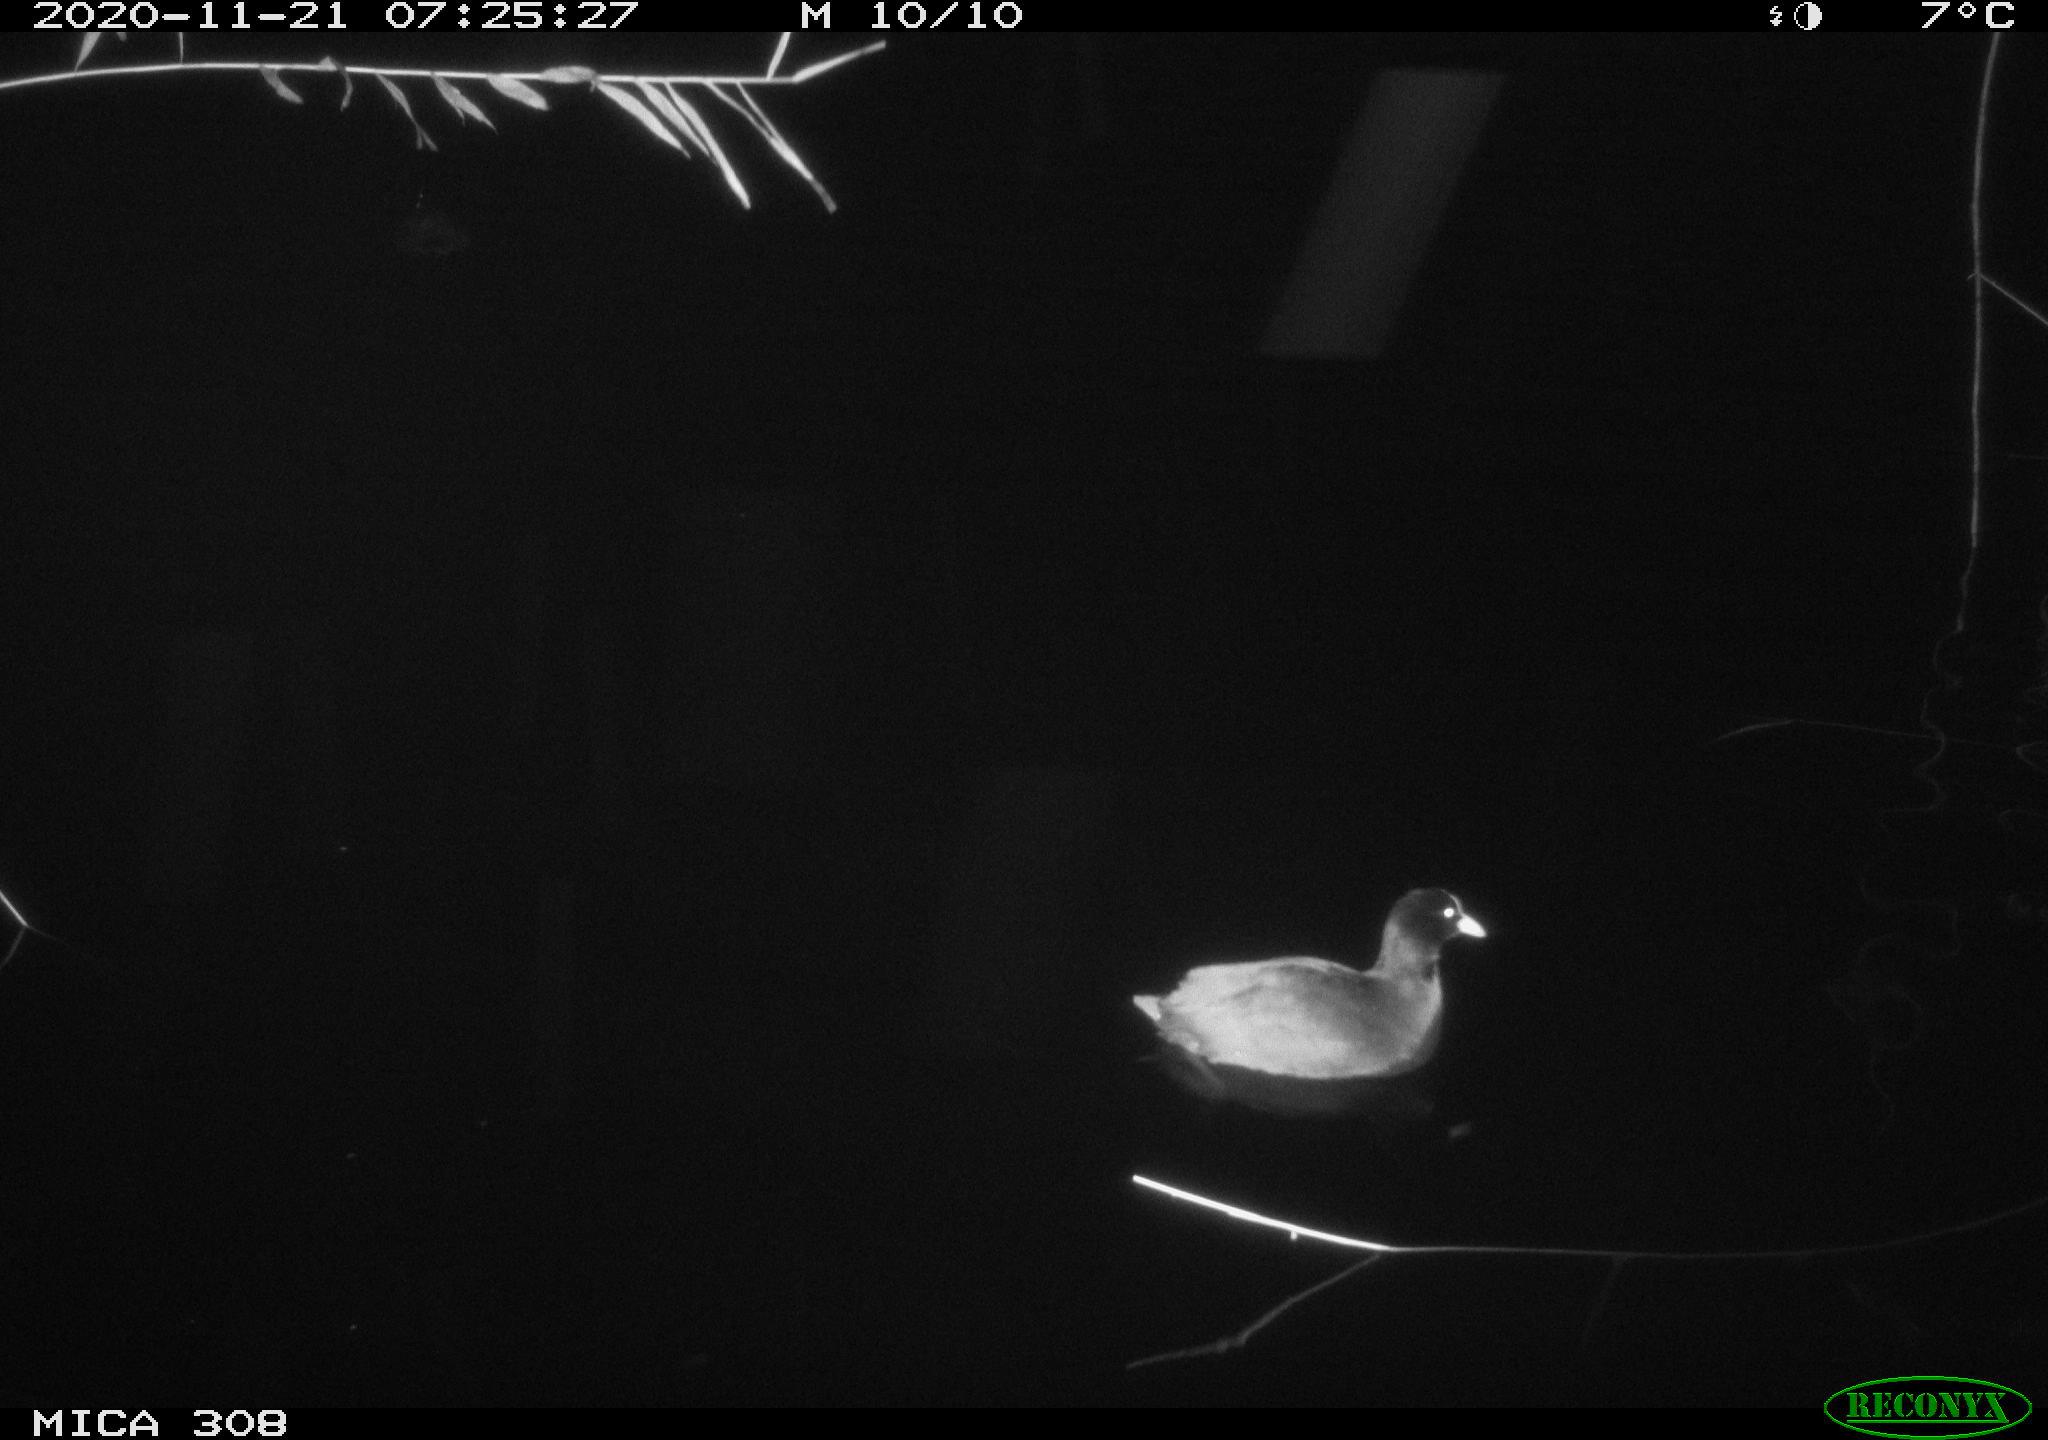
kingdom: Animalia
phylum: Chordata
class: Aves
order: Gruiformes
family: Rallidae
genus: Fulica
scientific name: Fulica atra
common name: Eurasian coot
